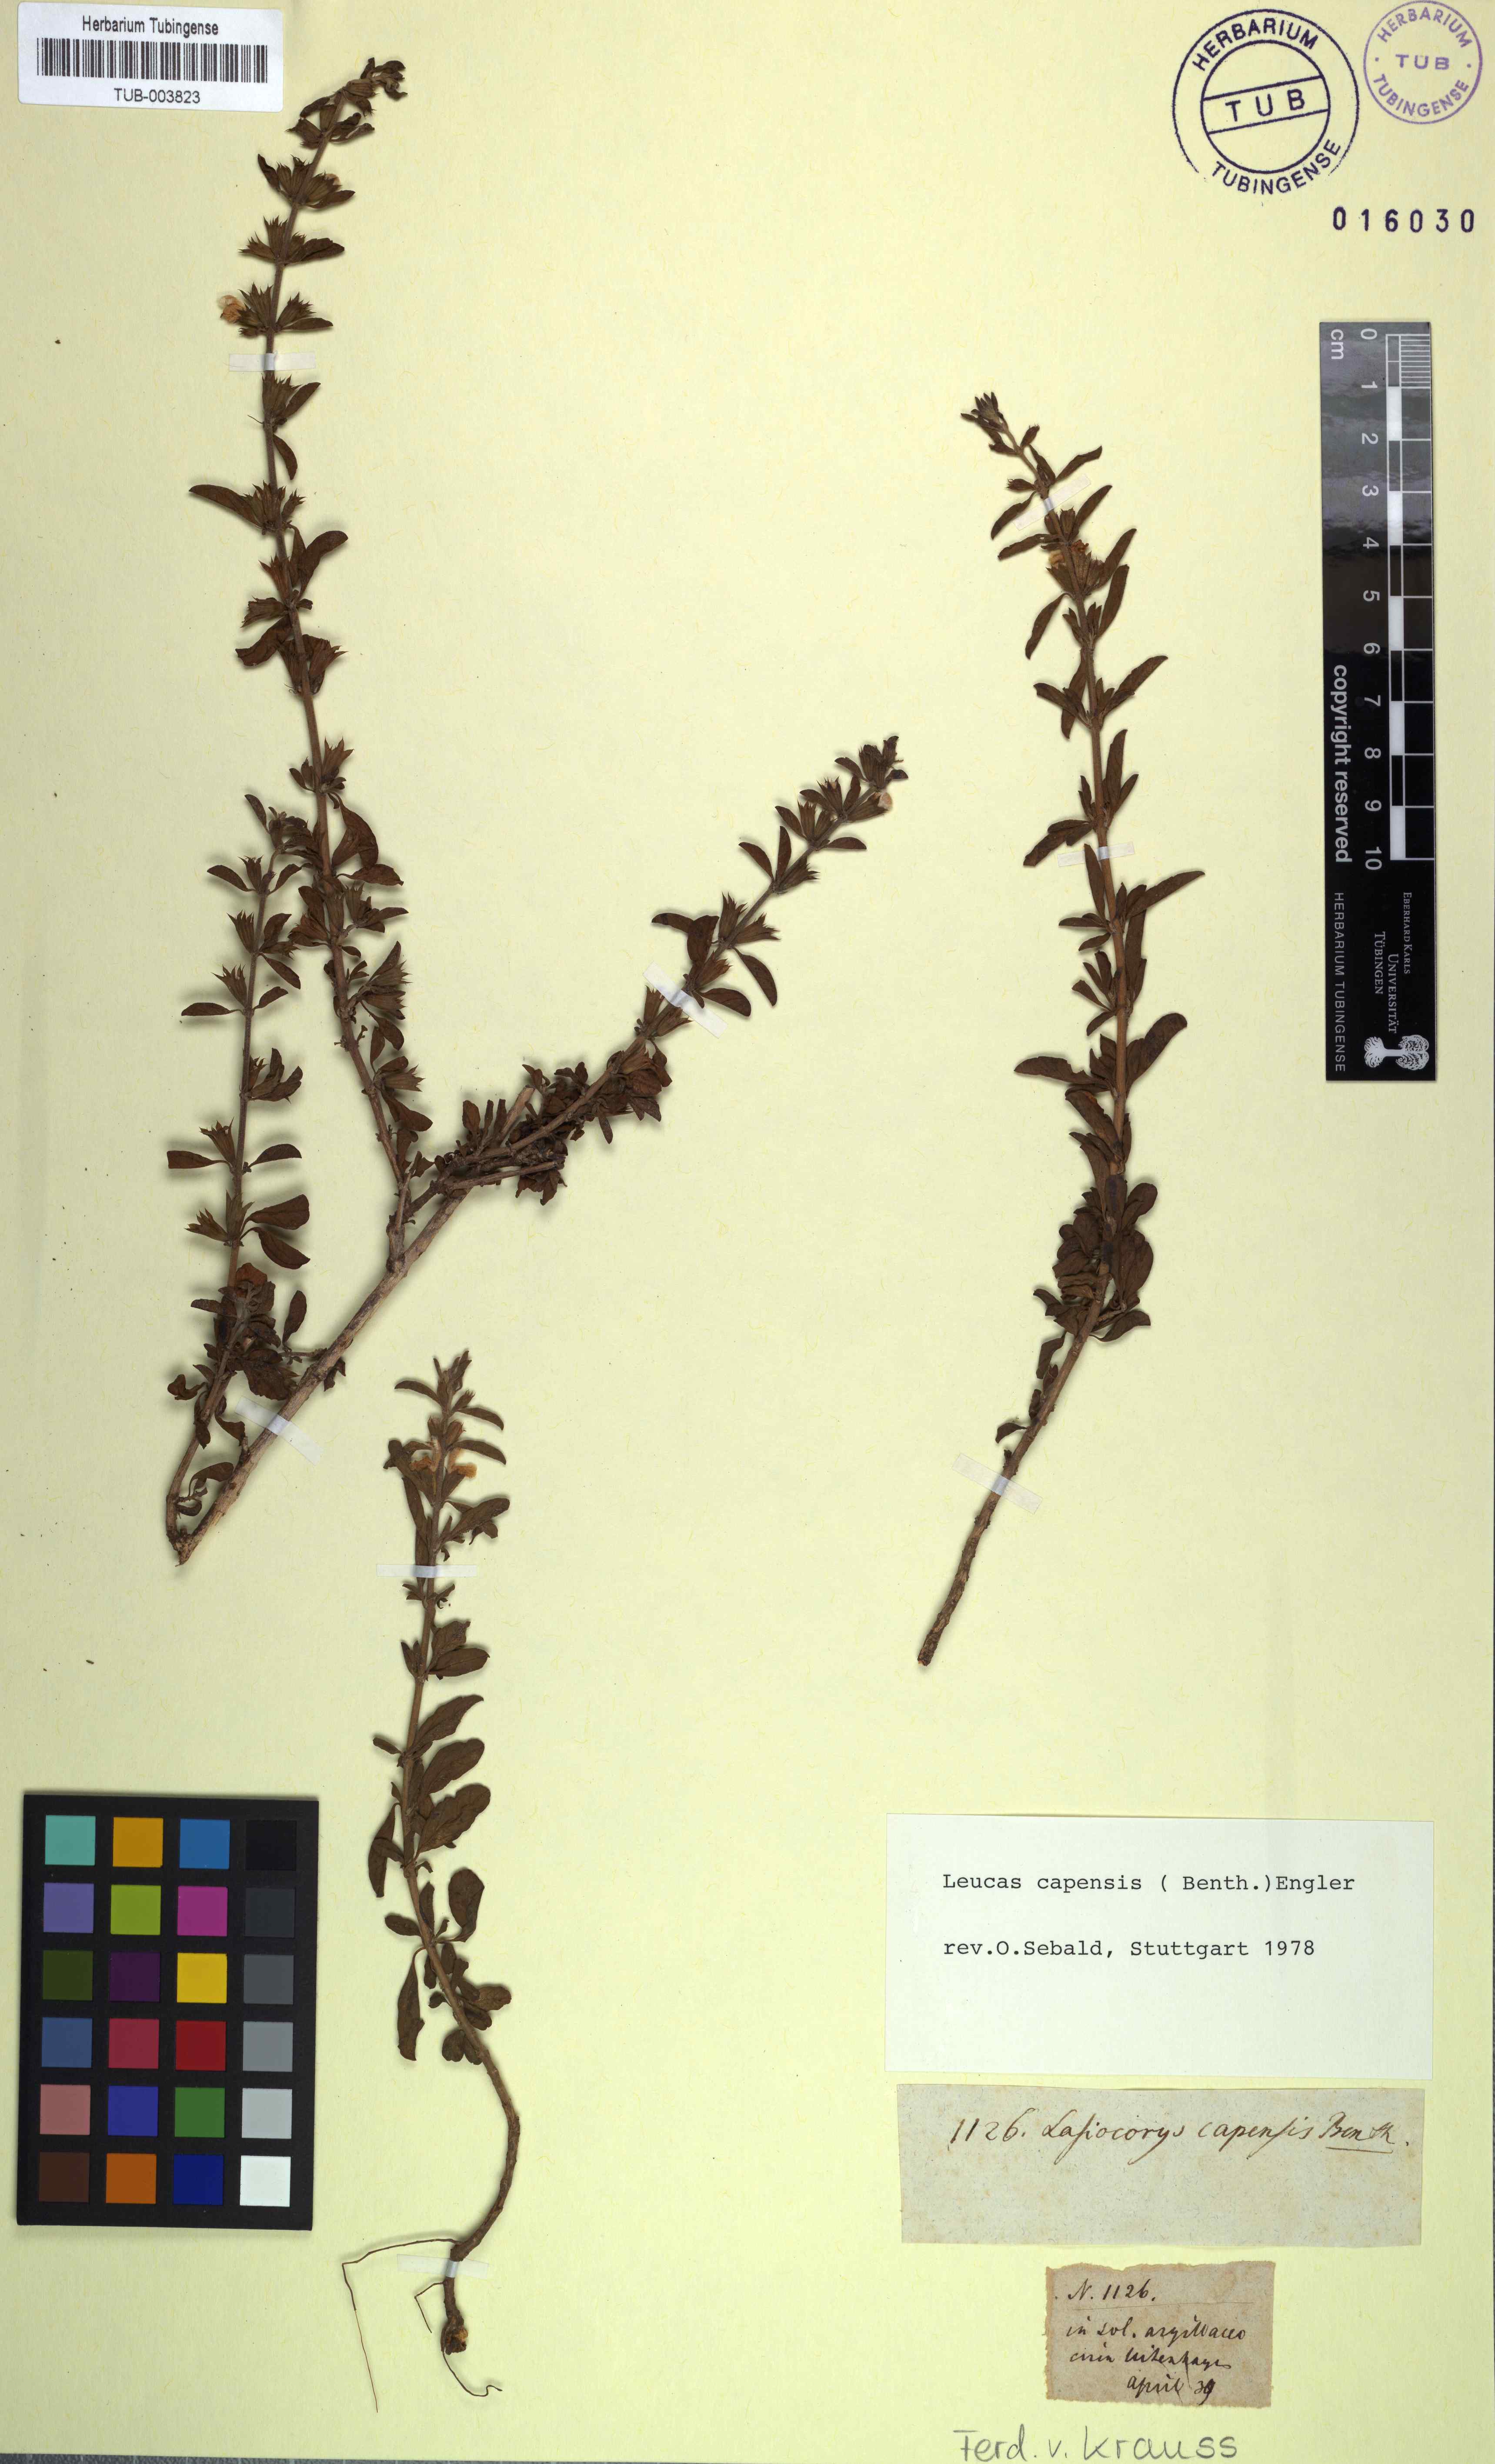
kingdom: Plantae
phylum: Tracheophyta
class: Magnoliopsida
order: Lamiales
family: Lamiaceae
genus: Leucas
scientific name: Leucas capensis
